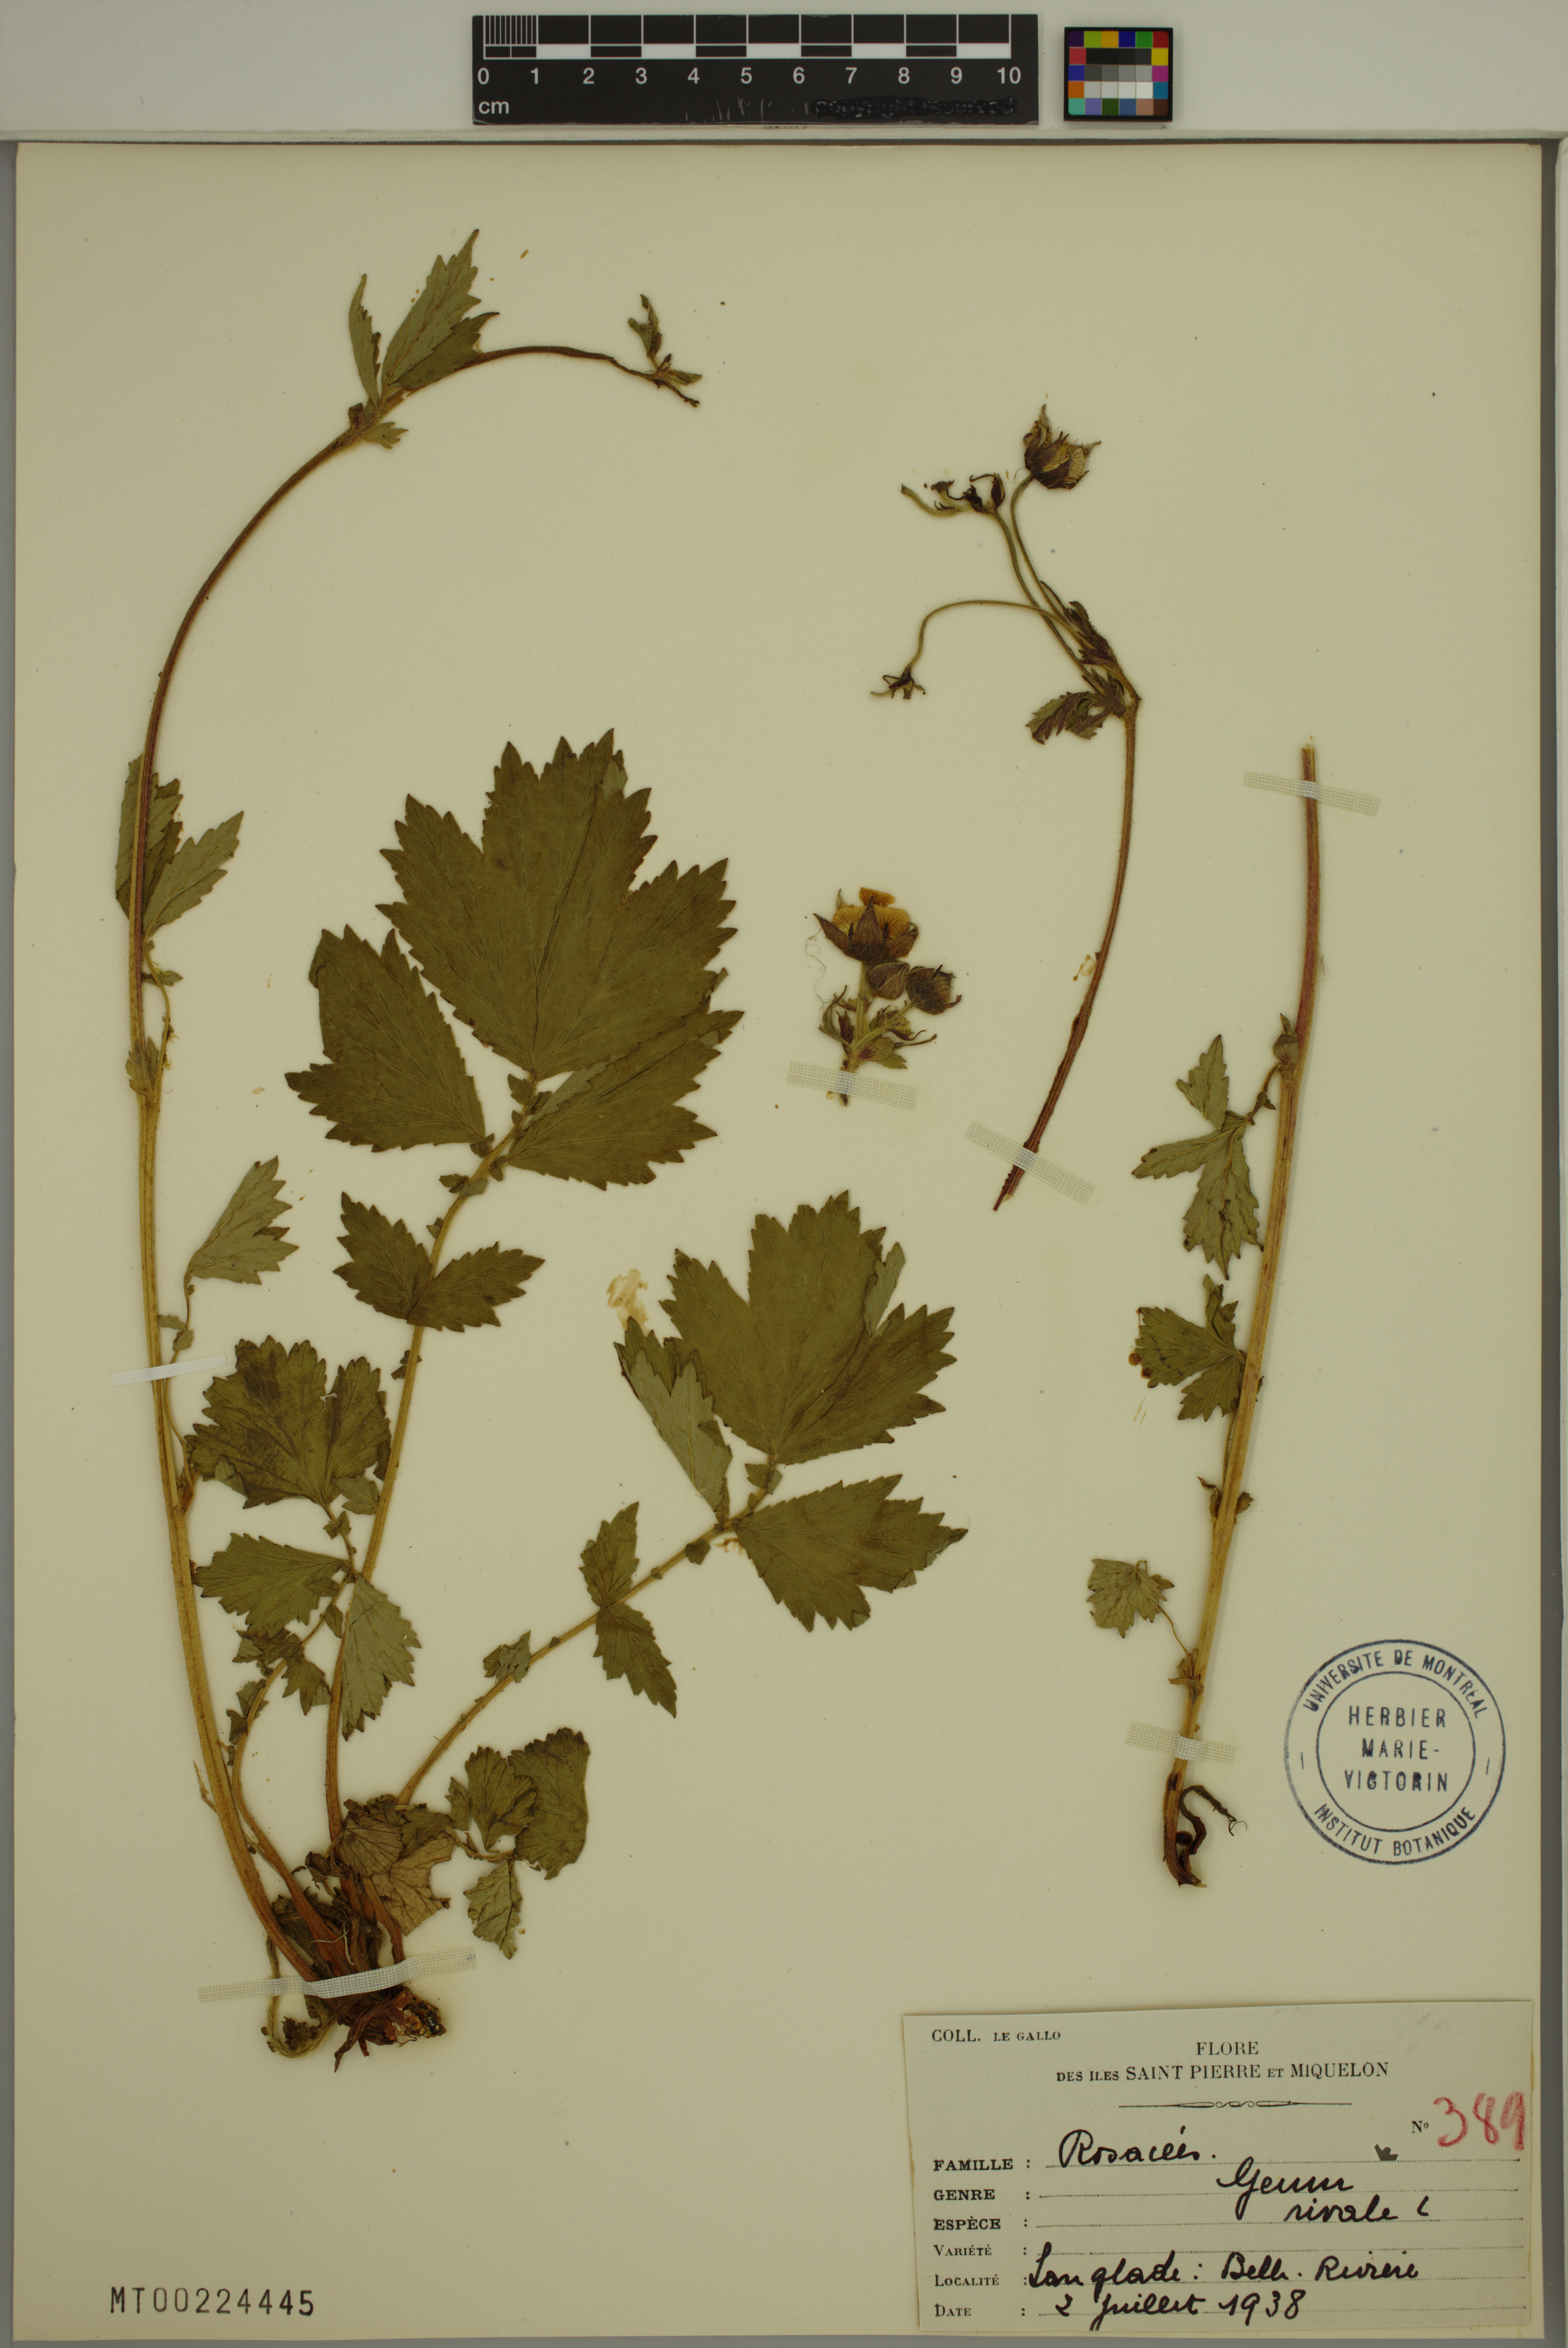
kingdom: Plantae
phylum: Tracheophyta
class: Magnoliopsida
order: Rosales
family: Rosaceae
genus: Geum
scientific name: Geum rivale
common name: Water avens
